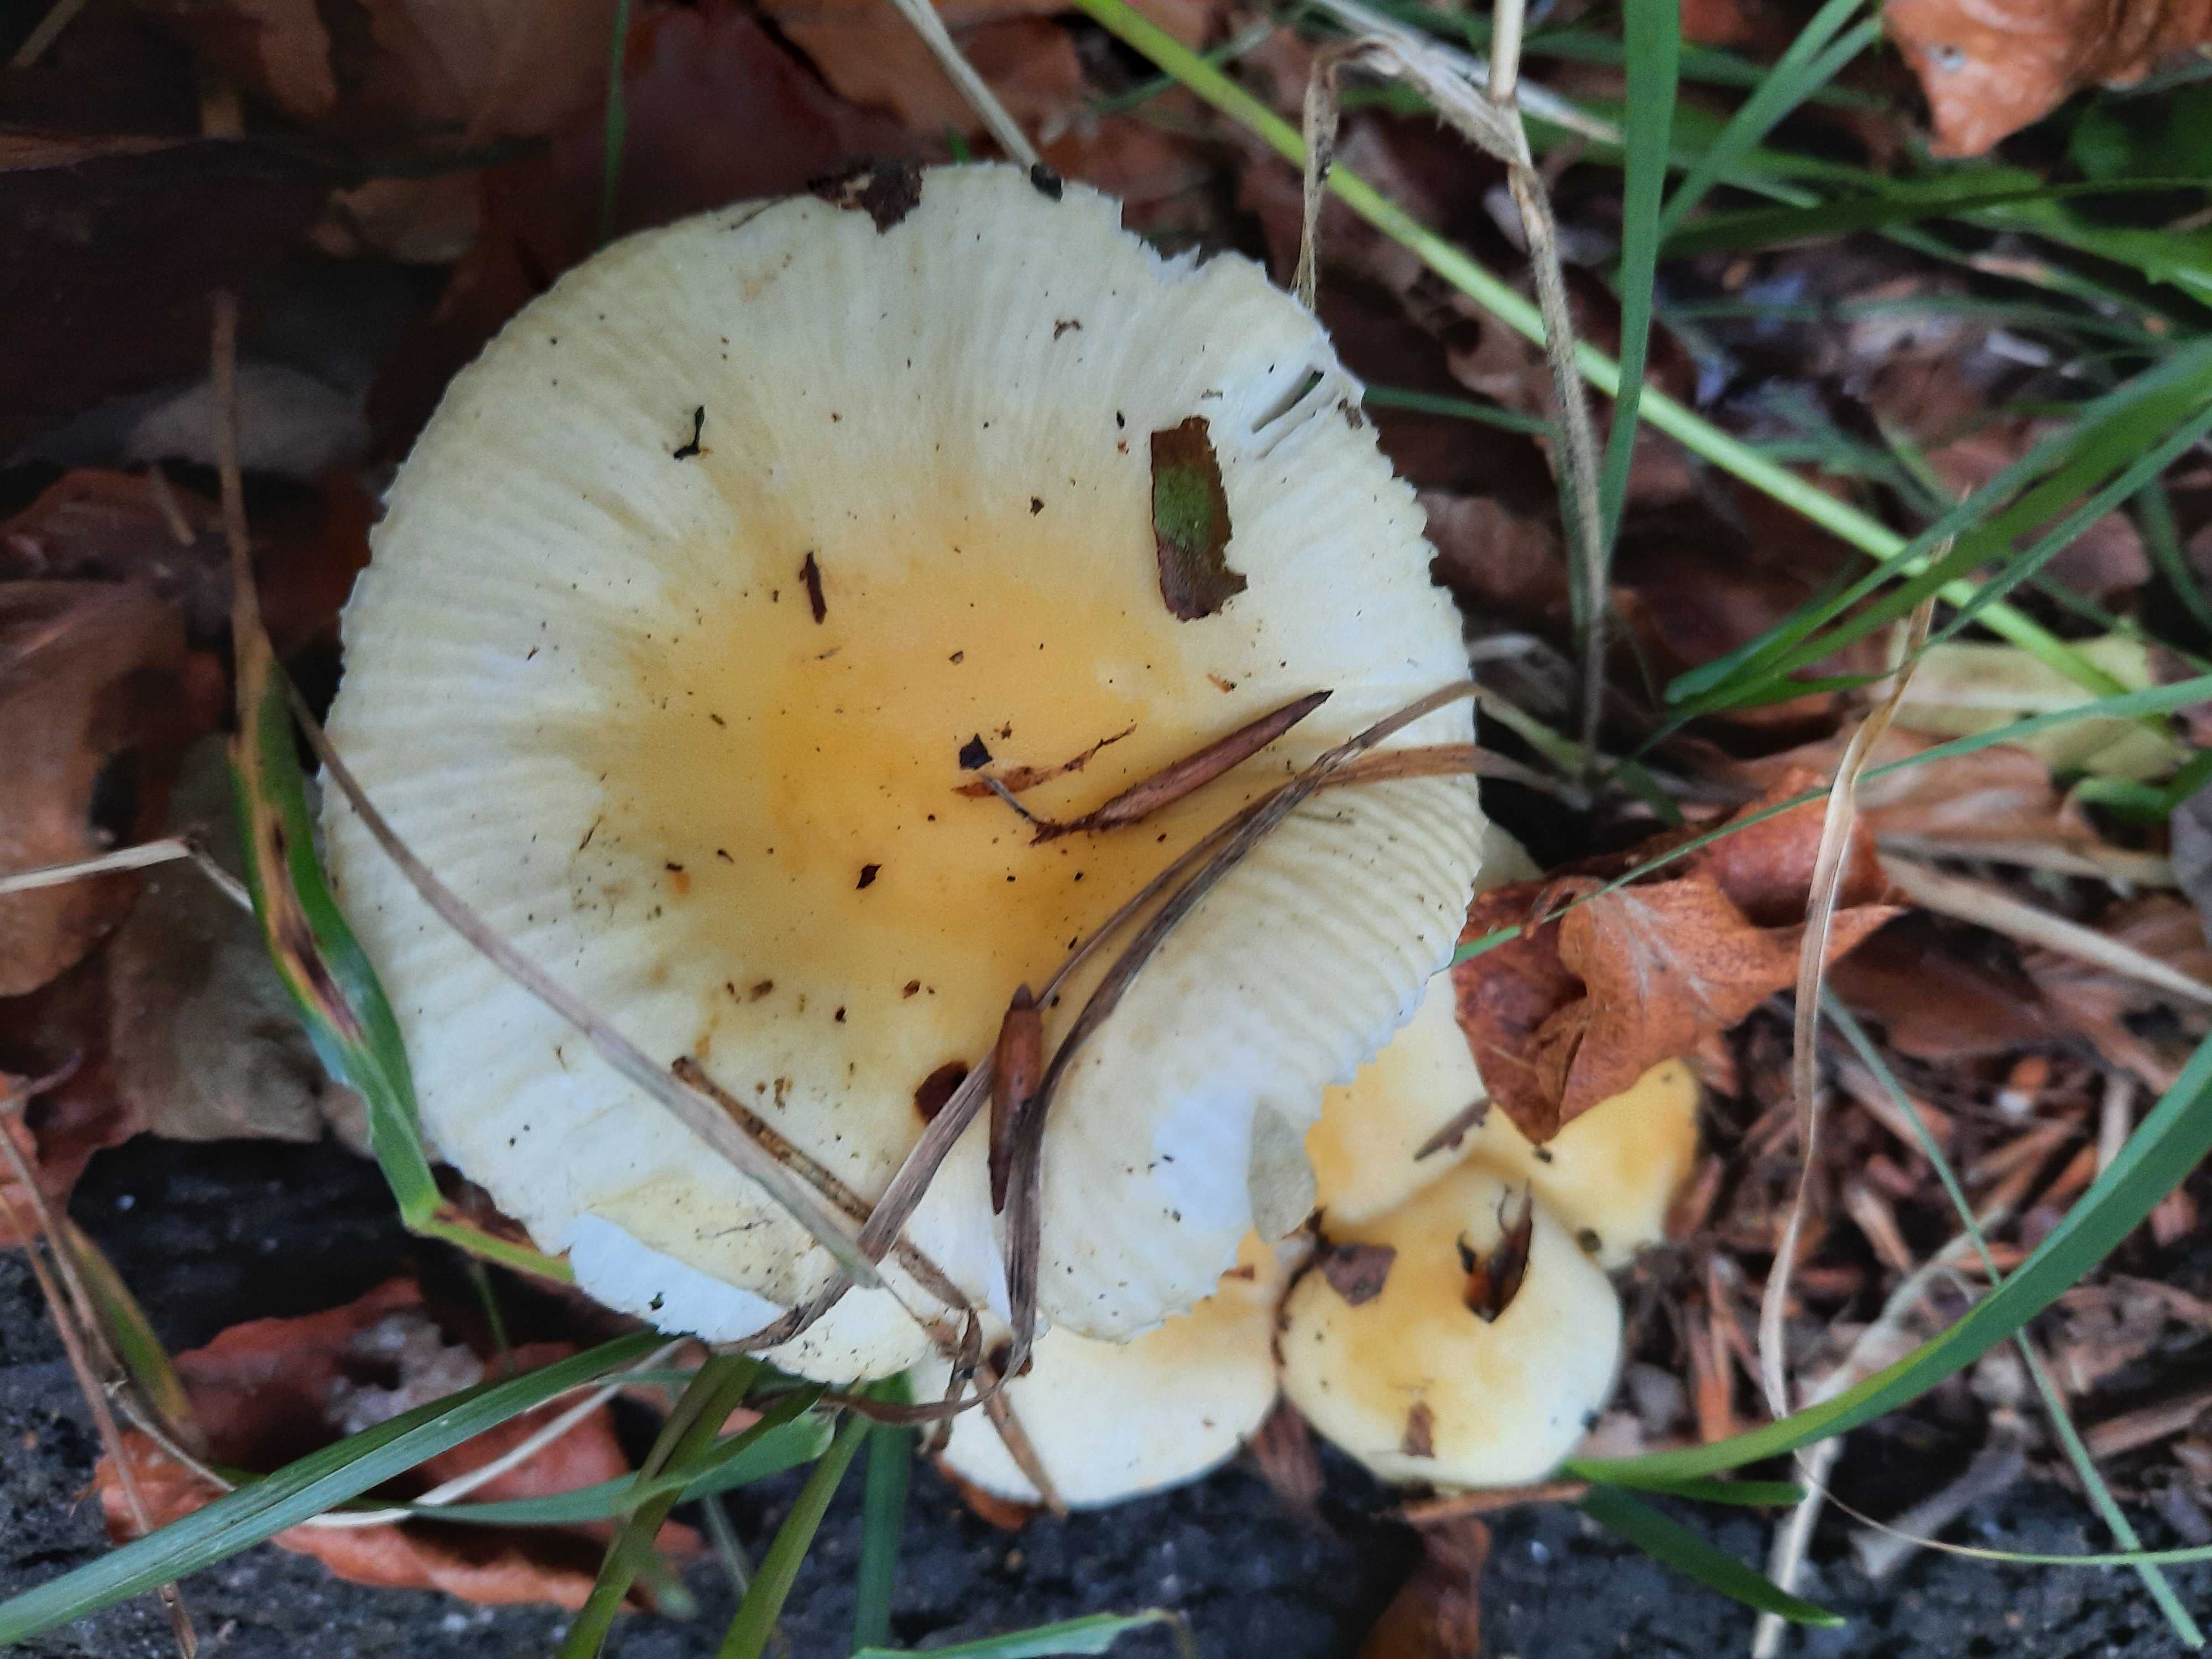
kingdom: Fungi
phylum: Basidiomycota
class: Agaricomycetes
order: Russulales
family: Russulaceae
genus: Russula
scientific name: Russula solaris
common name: sol-skørhat
